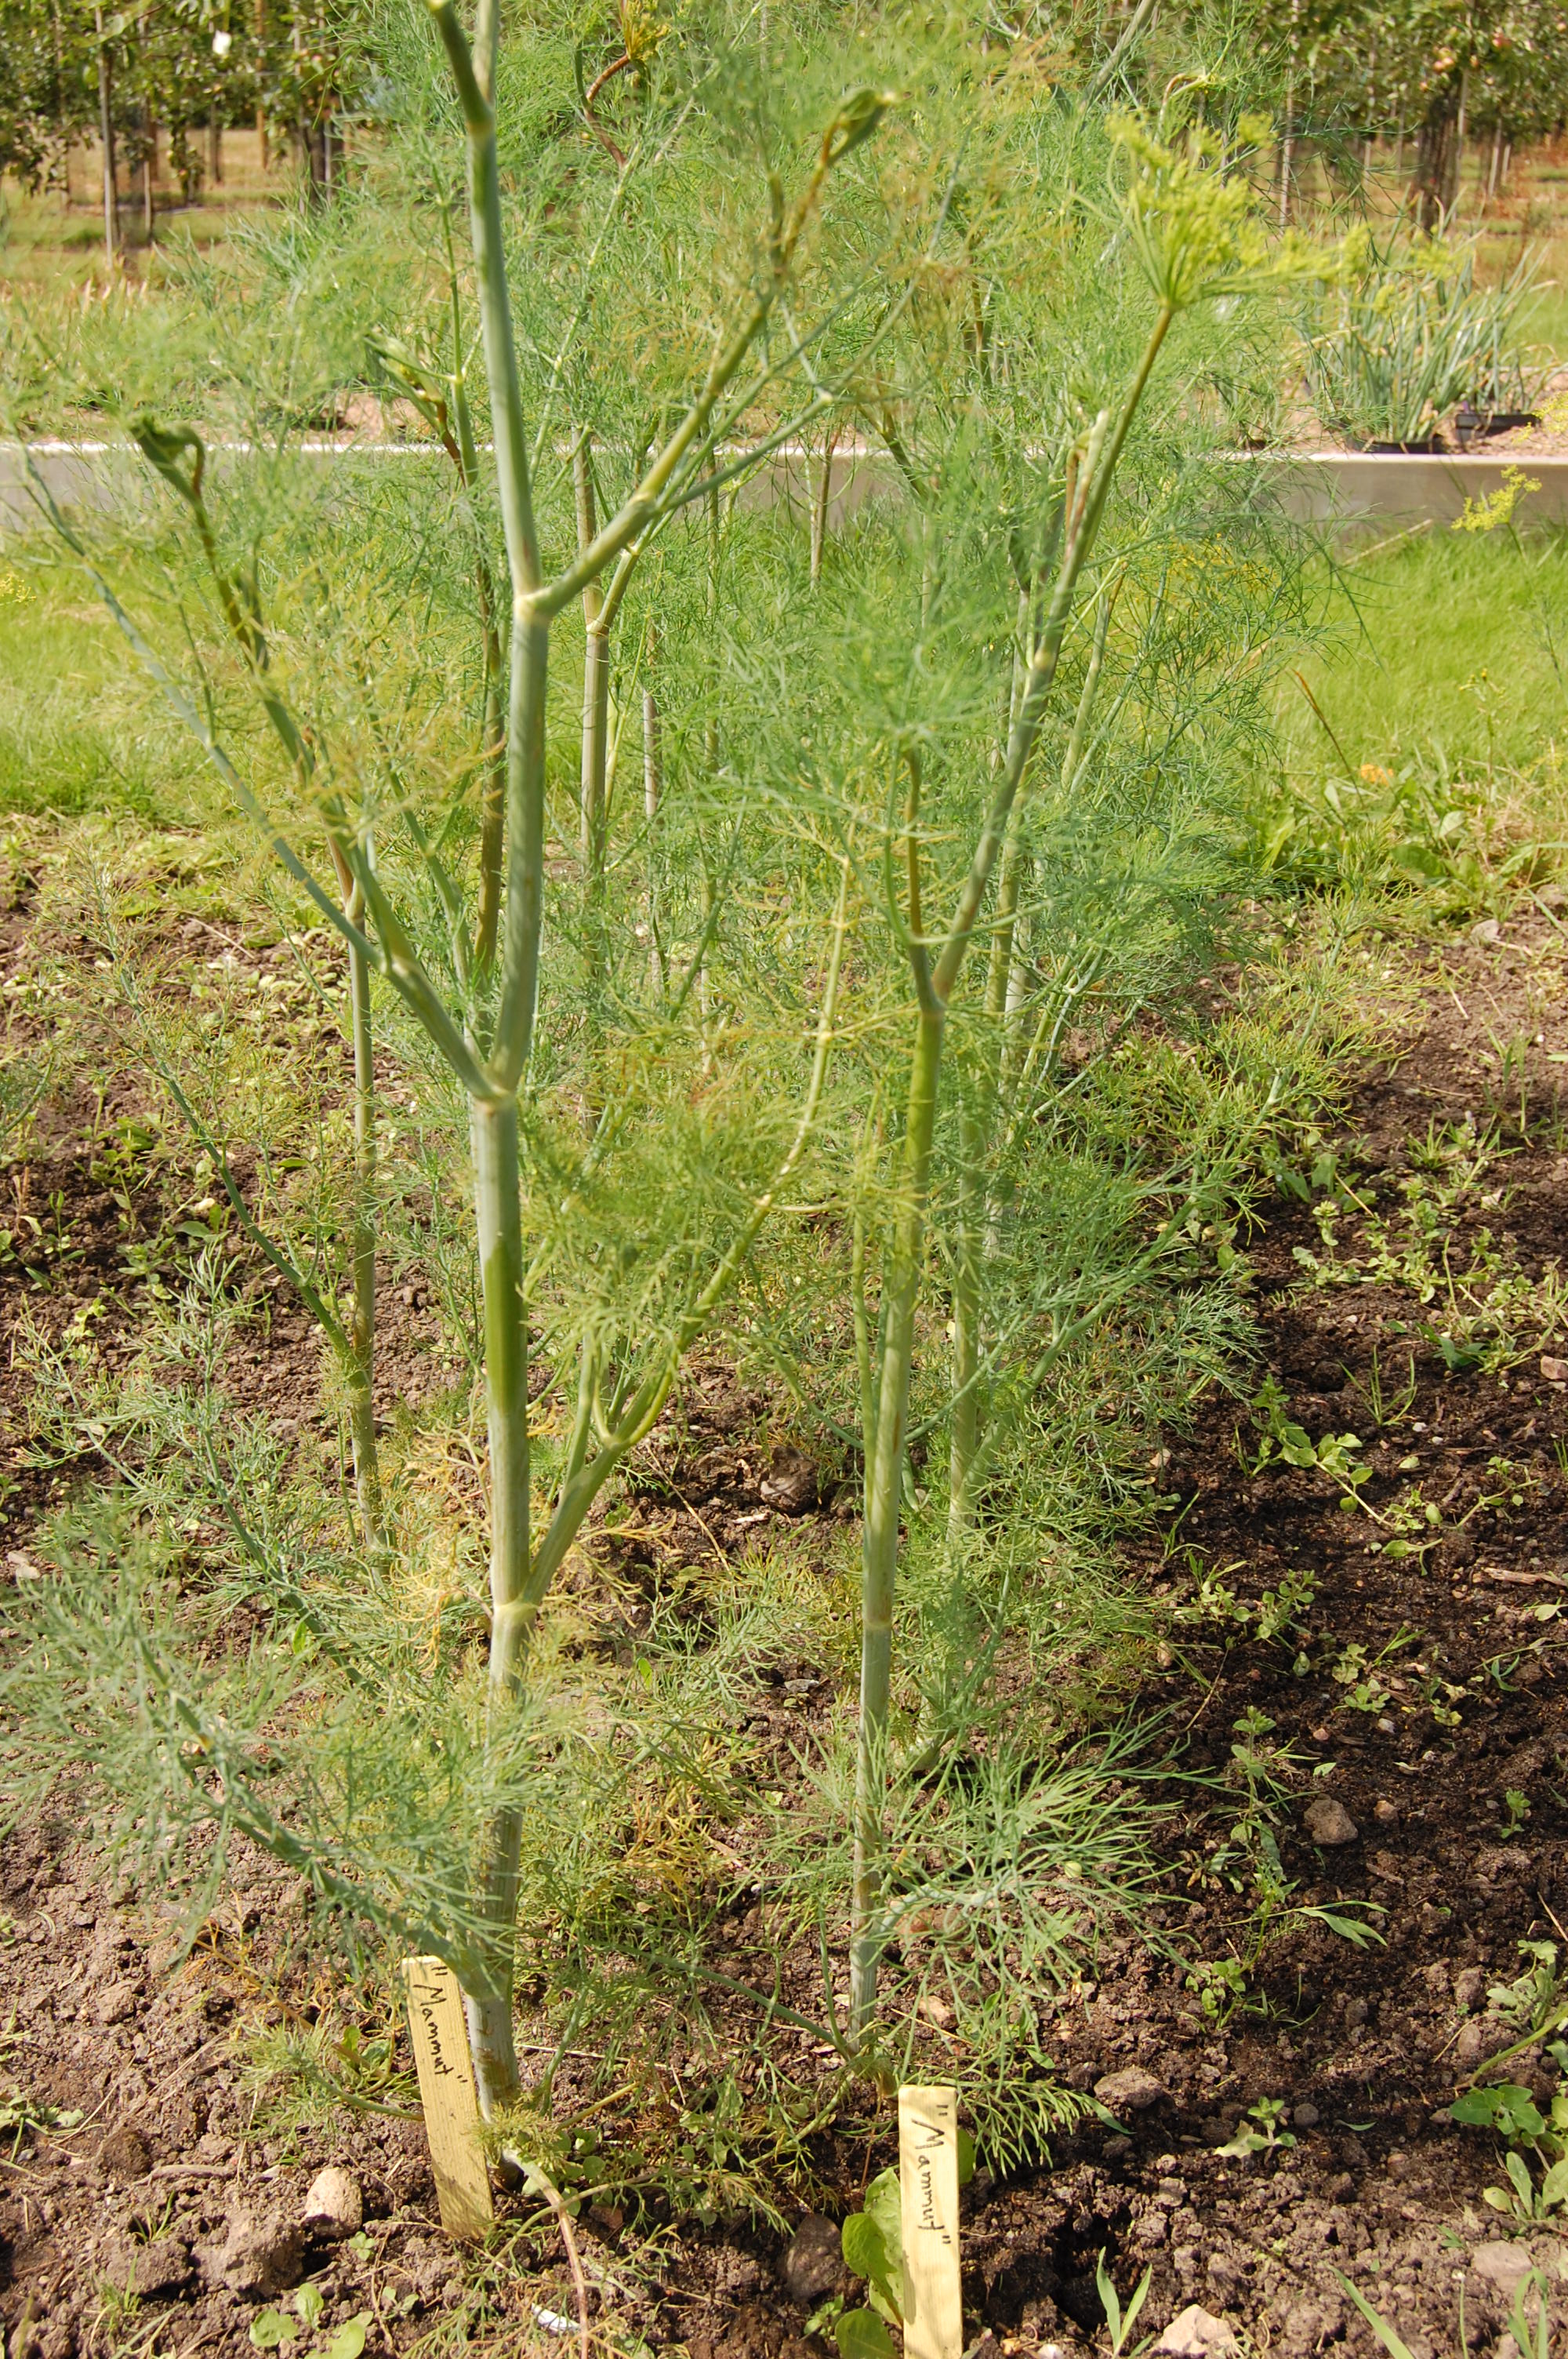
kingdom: Plantae
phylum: Tracheophyta
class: Magnoliopsida
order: Apiales
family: Apiaceae
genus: Anethum
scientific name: Anethum graveolens
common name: Dill
